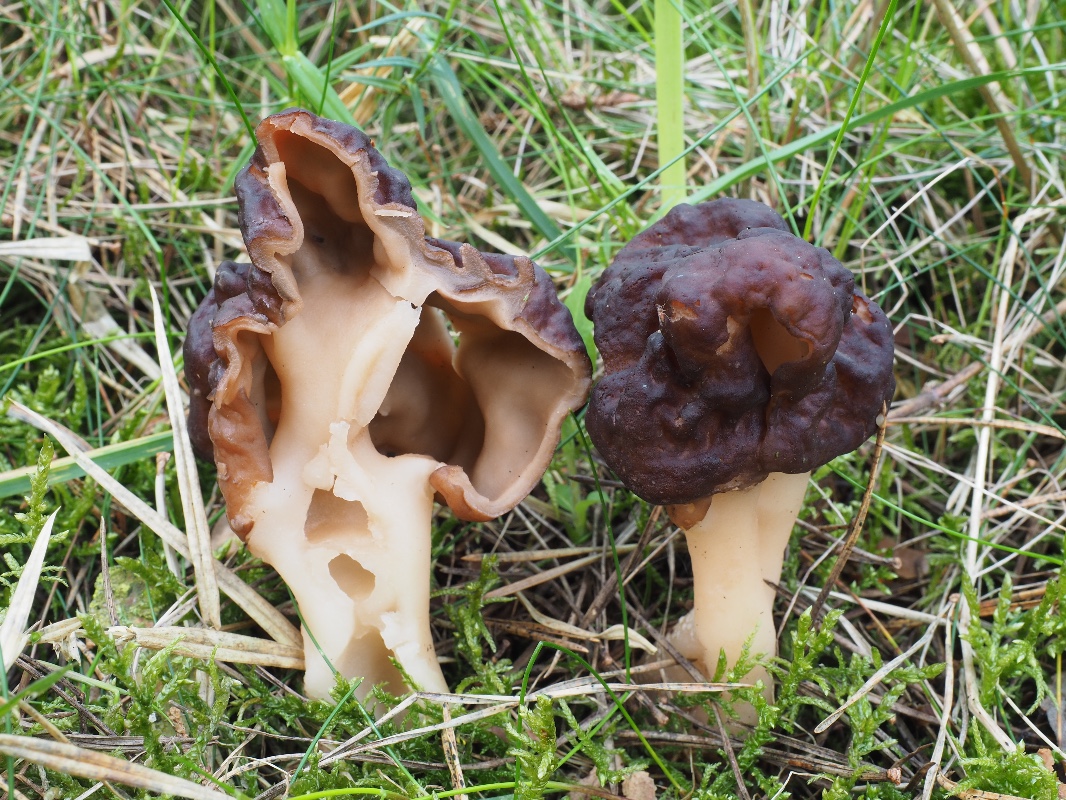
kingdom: Fungi
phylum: Ascomycota
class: Pezizomycetes
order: Pezizales
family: Discinaceae
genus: Gyromitra
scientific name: Gyromitra esculenta
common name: ægte stenmorkel
